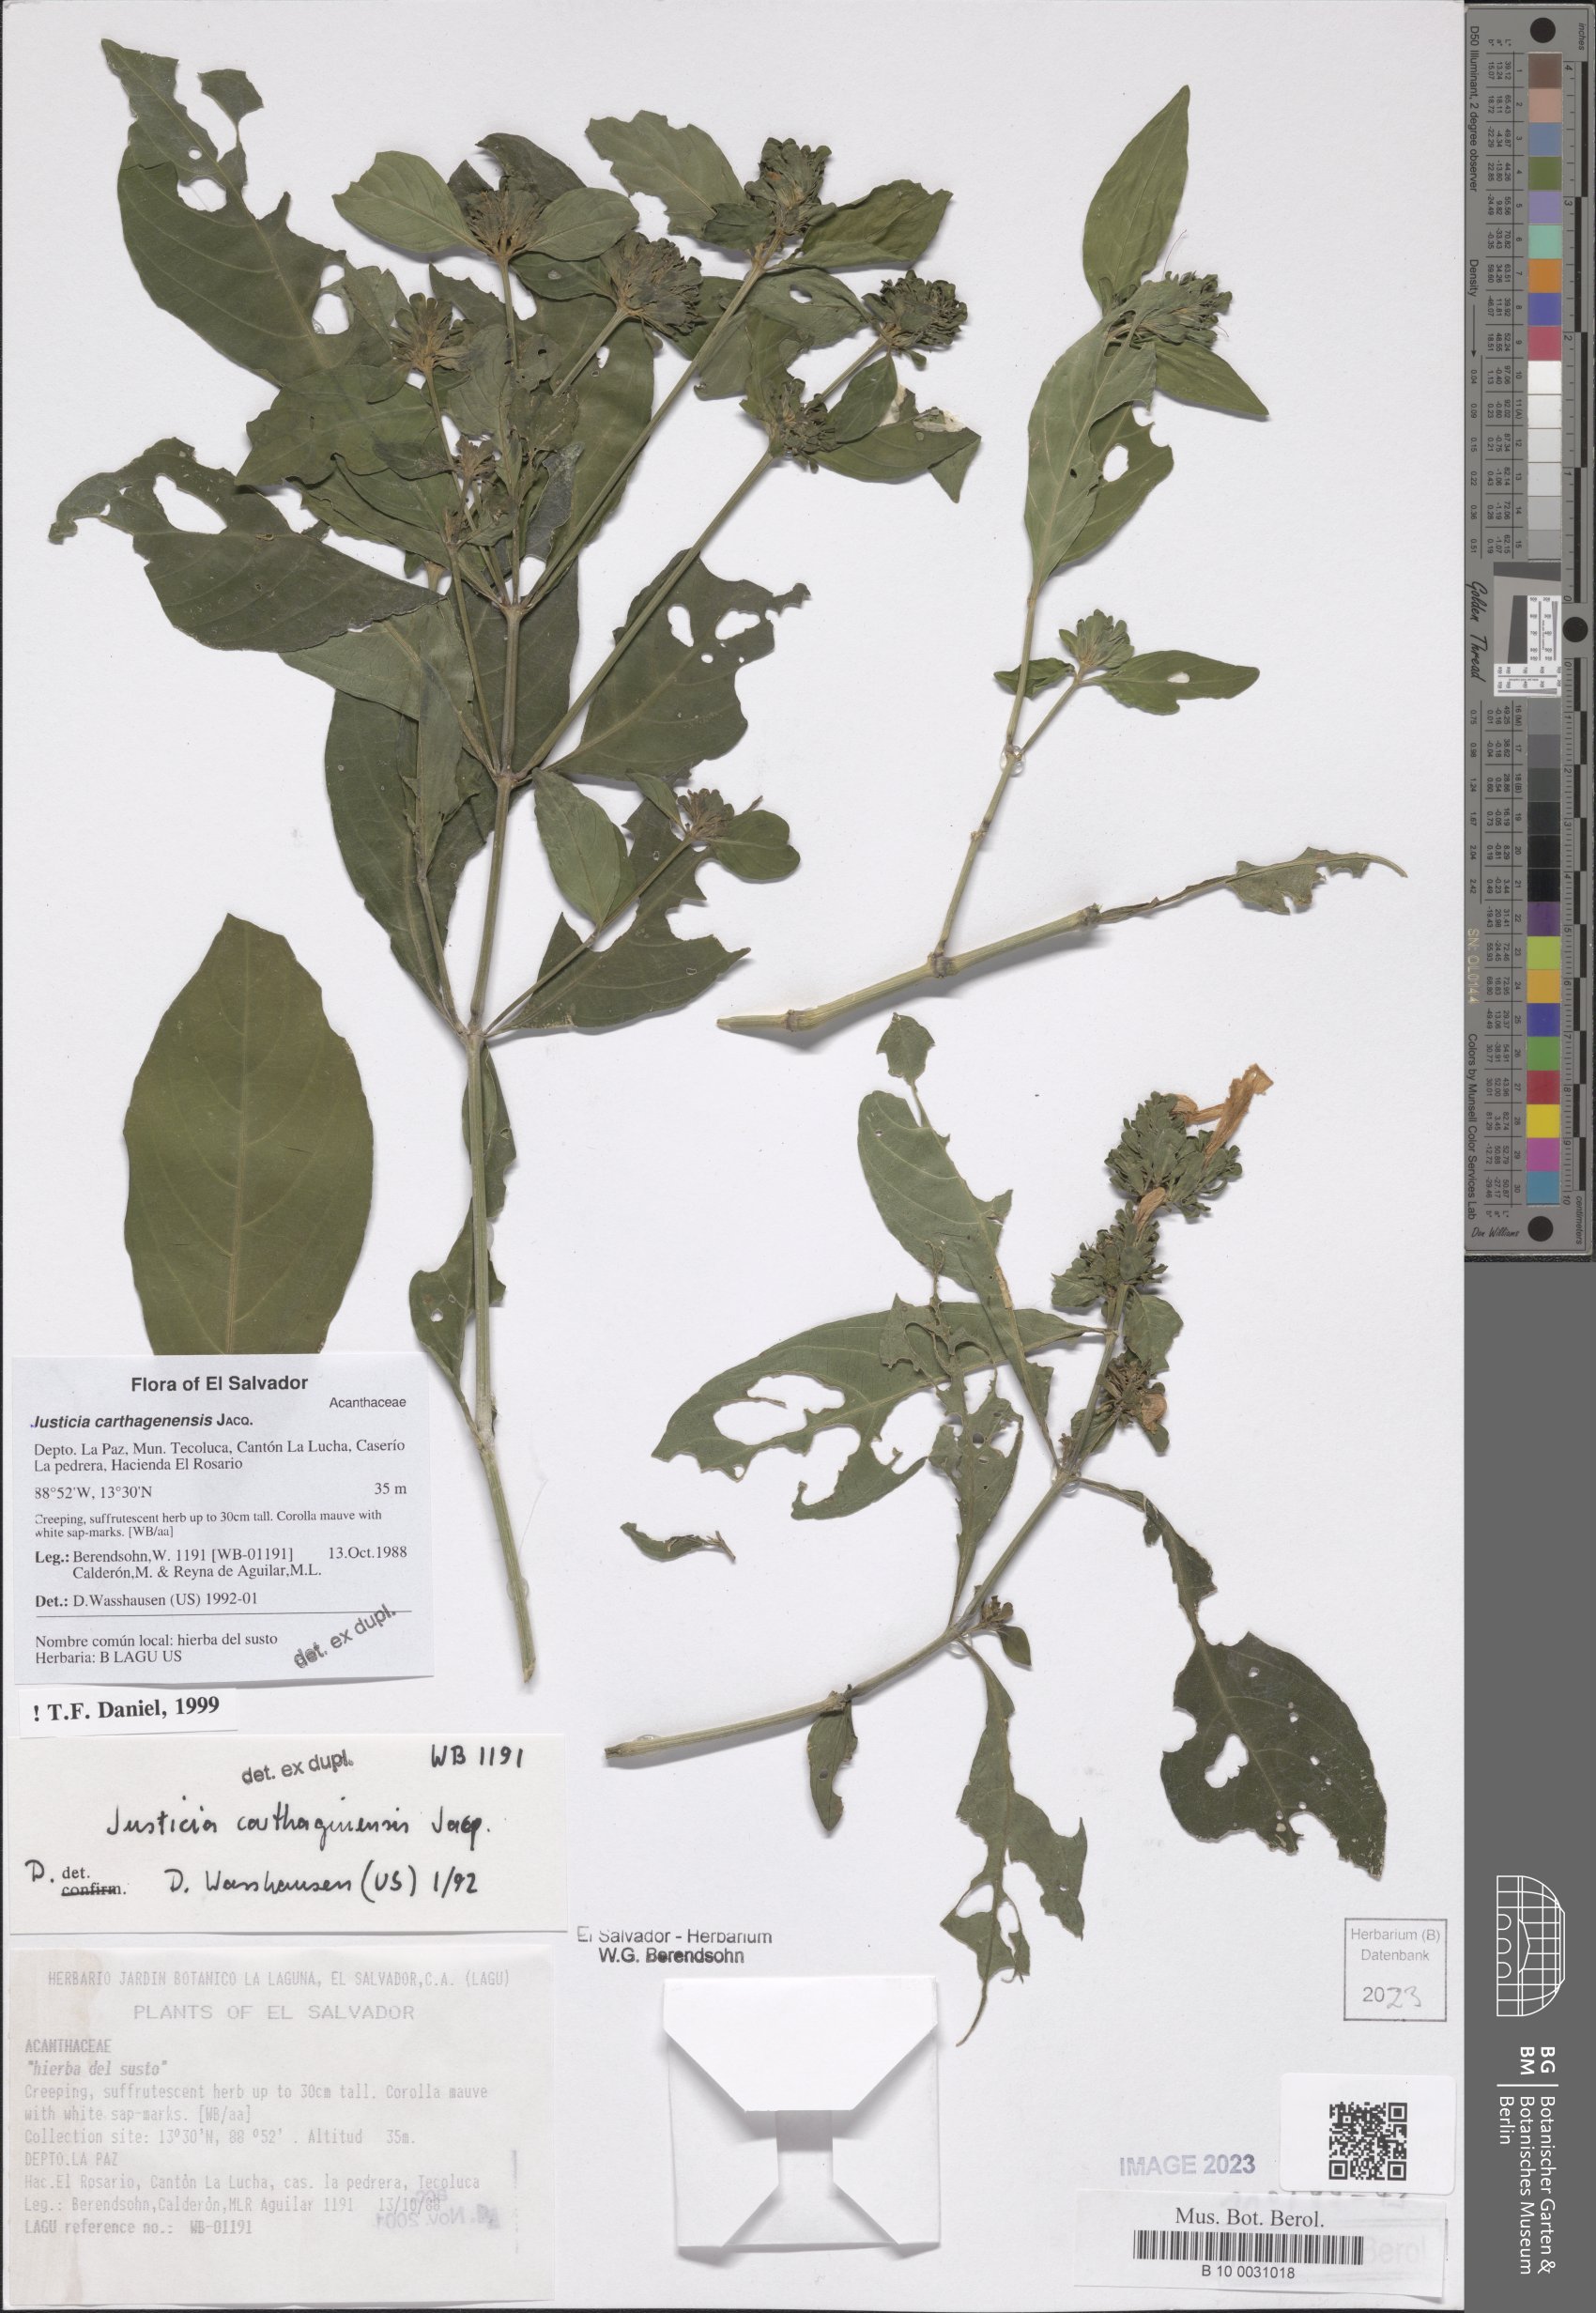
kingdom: Plantae
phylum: Tracheophyta
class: Magnoliopsida
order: Lamiales
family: Acanthaceae
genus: Justicia
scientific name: Justicia carthagenensis
